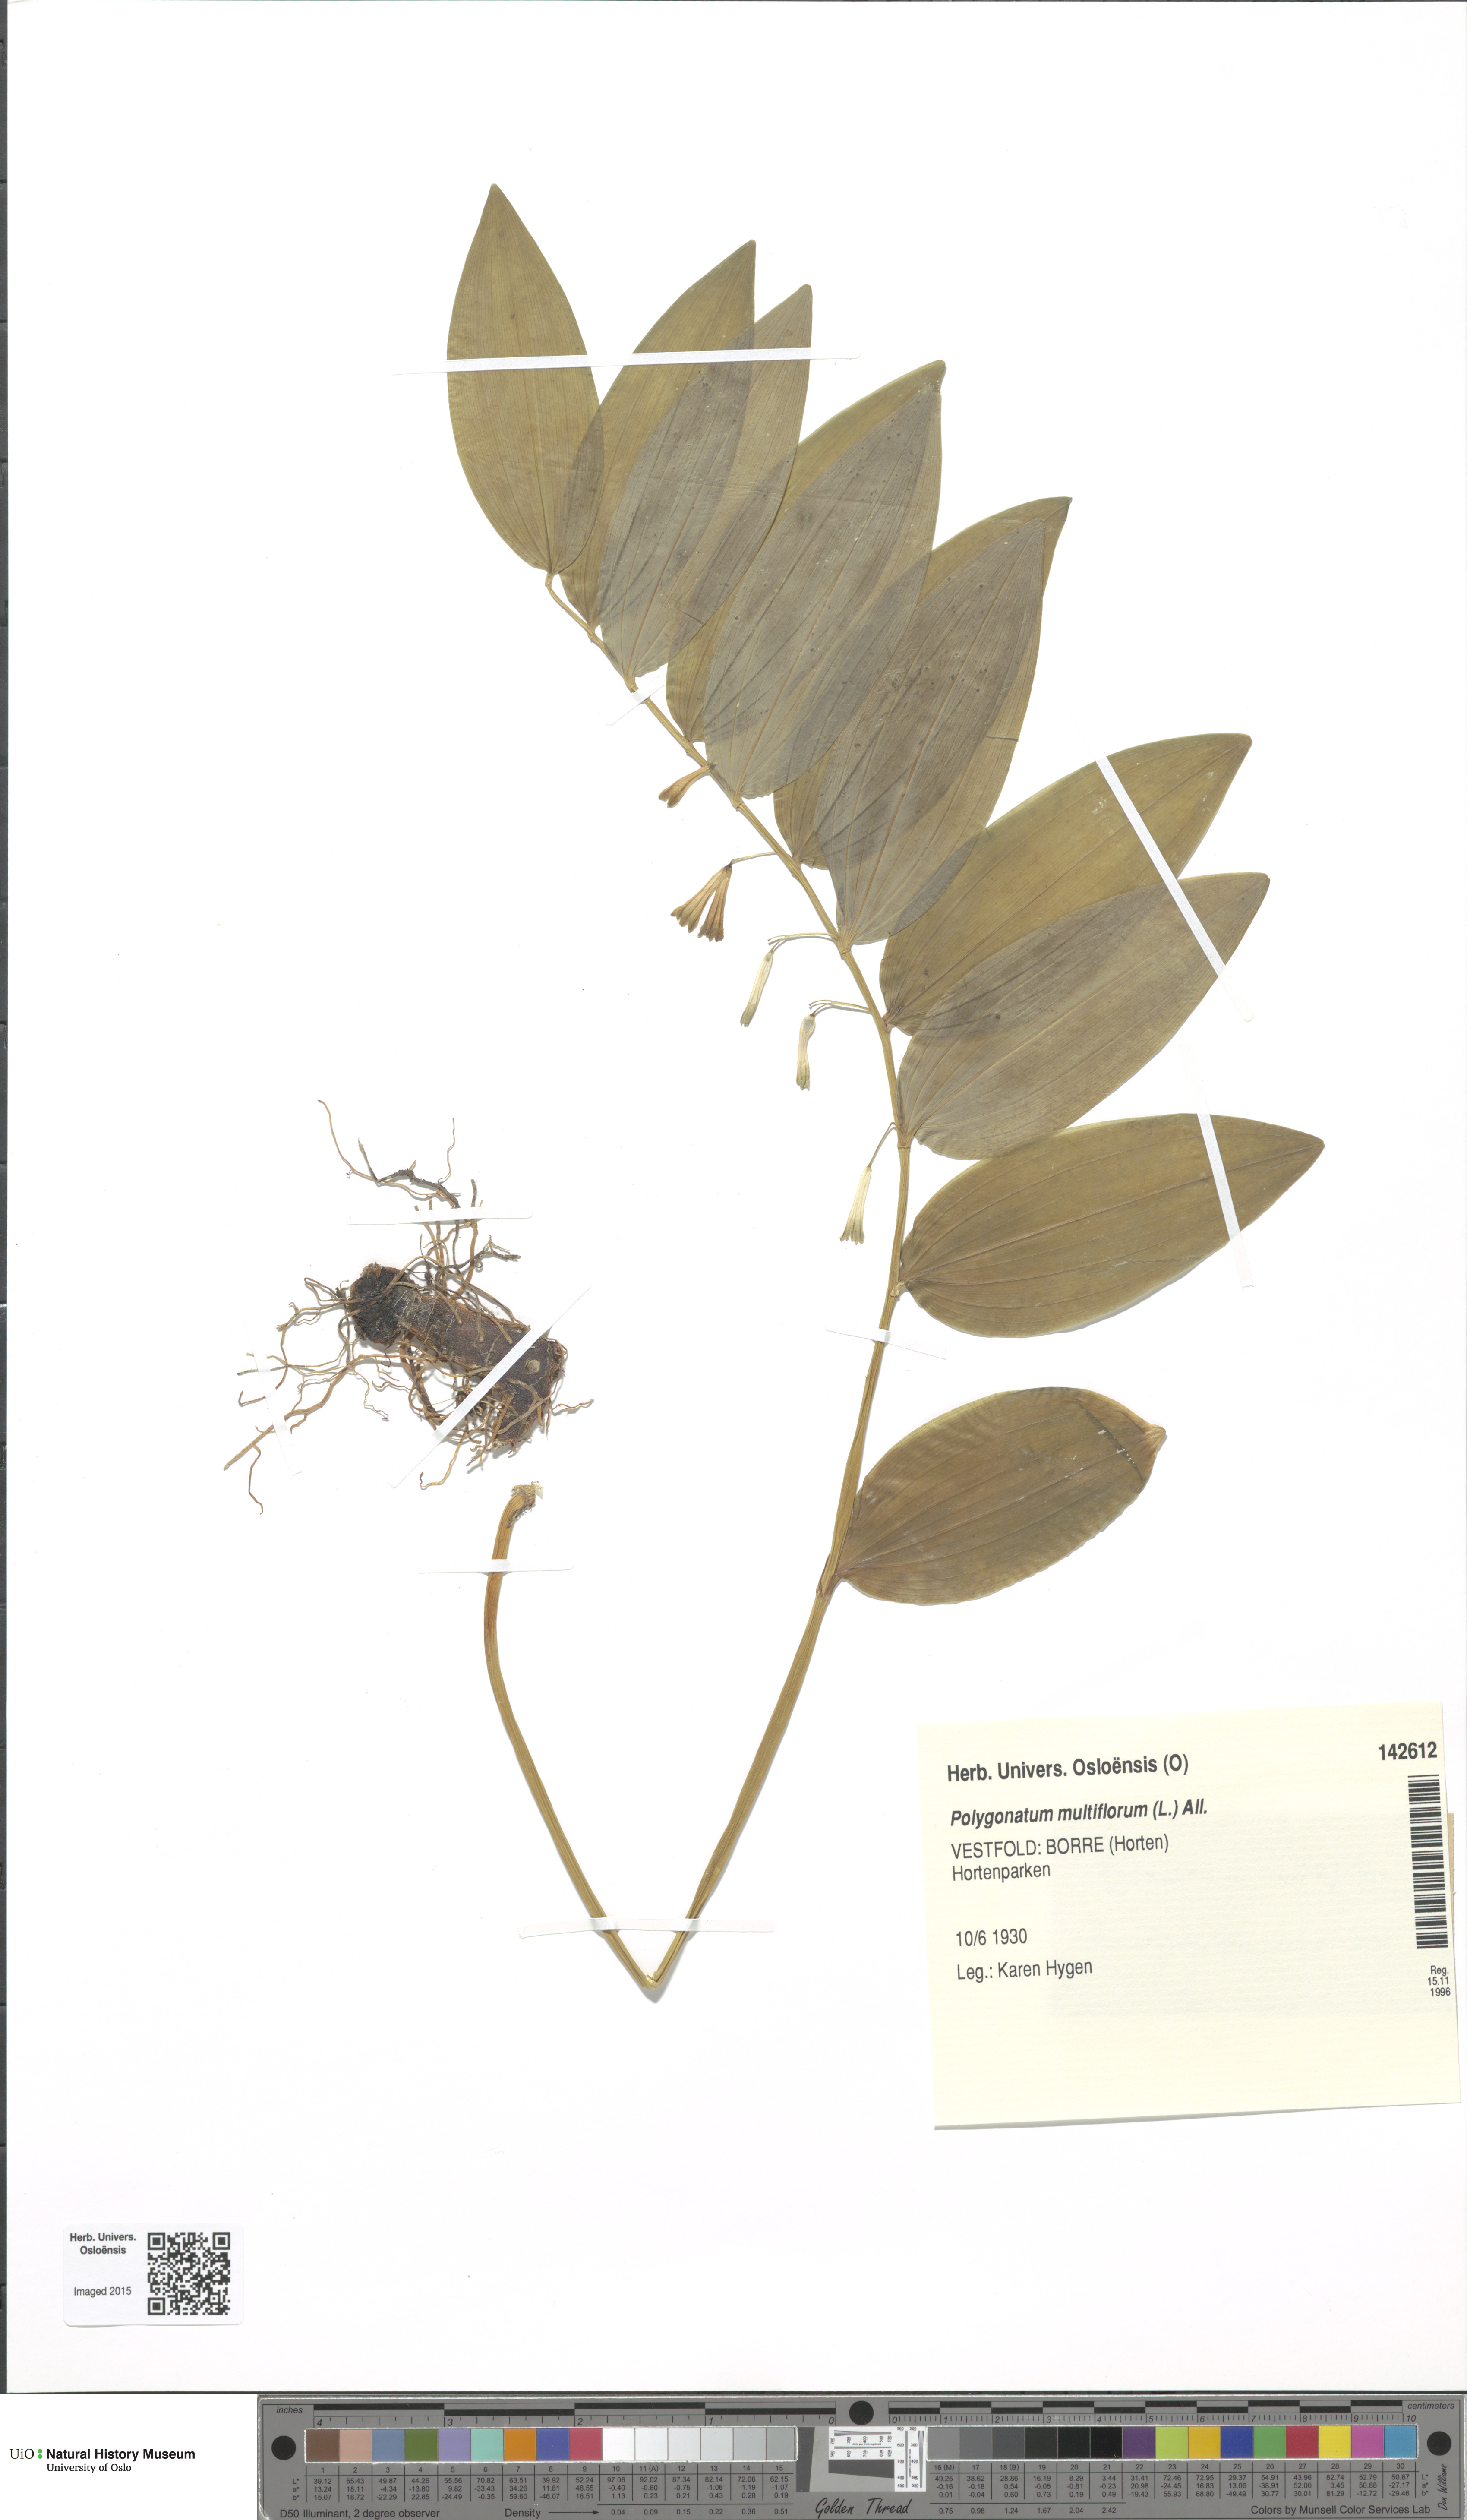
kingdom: Plantae
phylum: Tracheophyta
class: Liliopsida
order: Asparagales
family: Asparagaceae
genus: Polygonatum
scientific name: Polygonatum multiflorum
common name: Solomon's-seal
